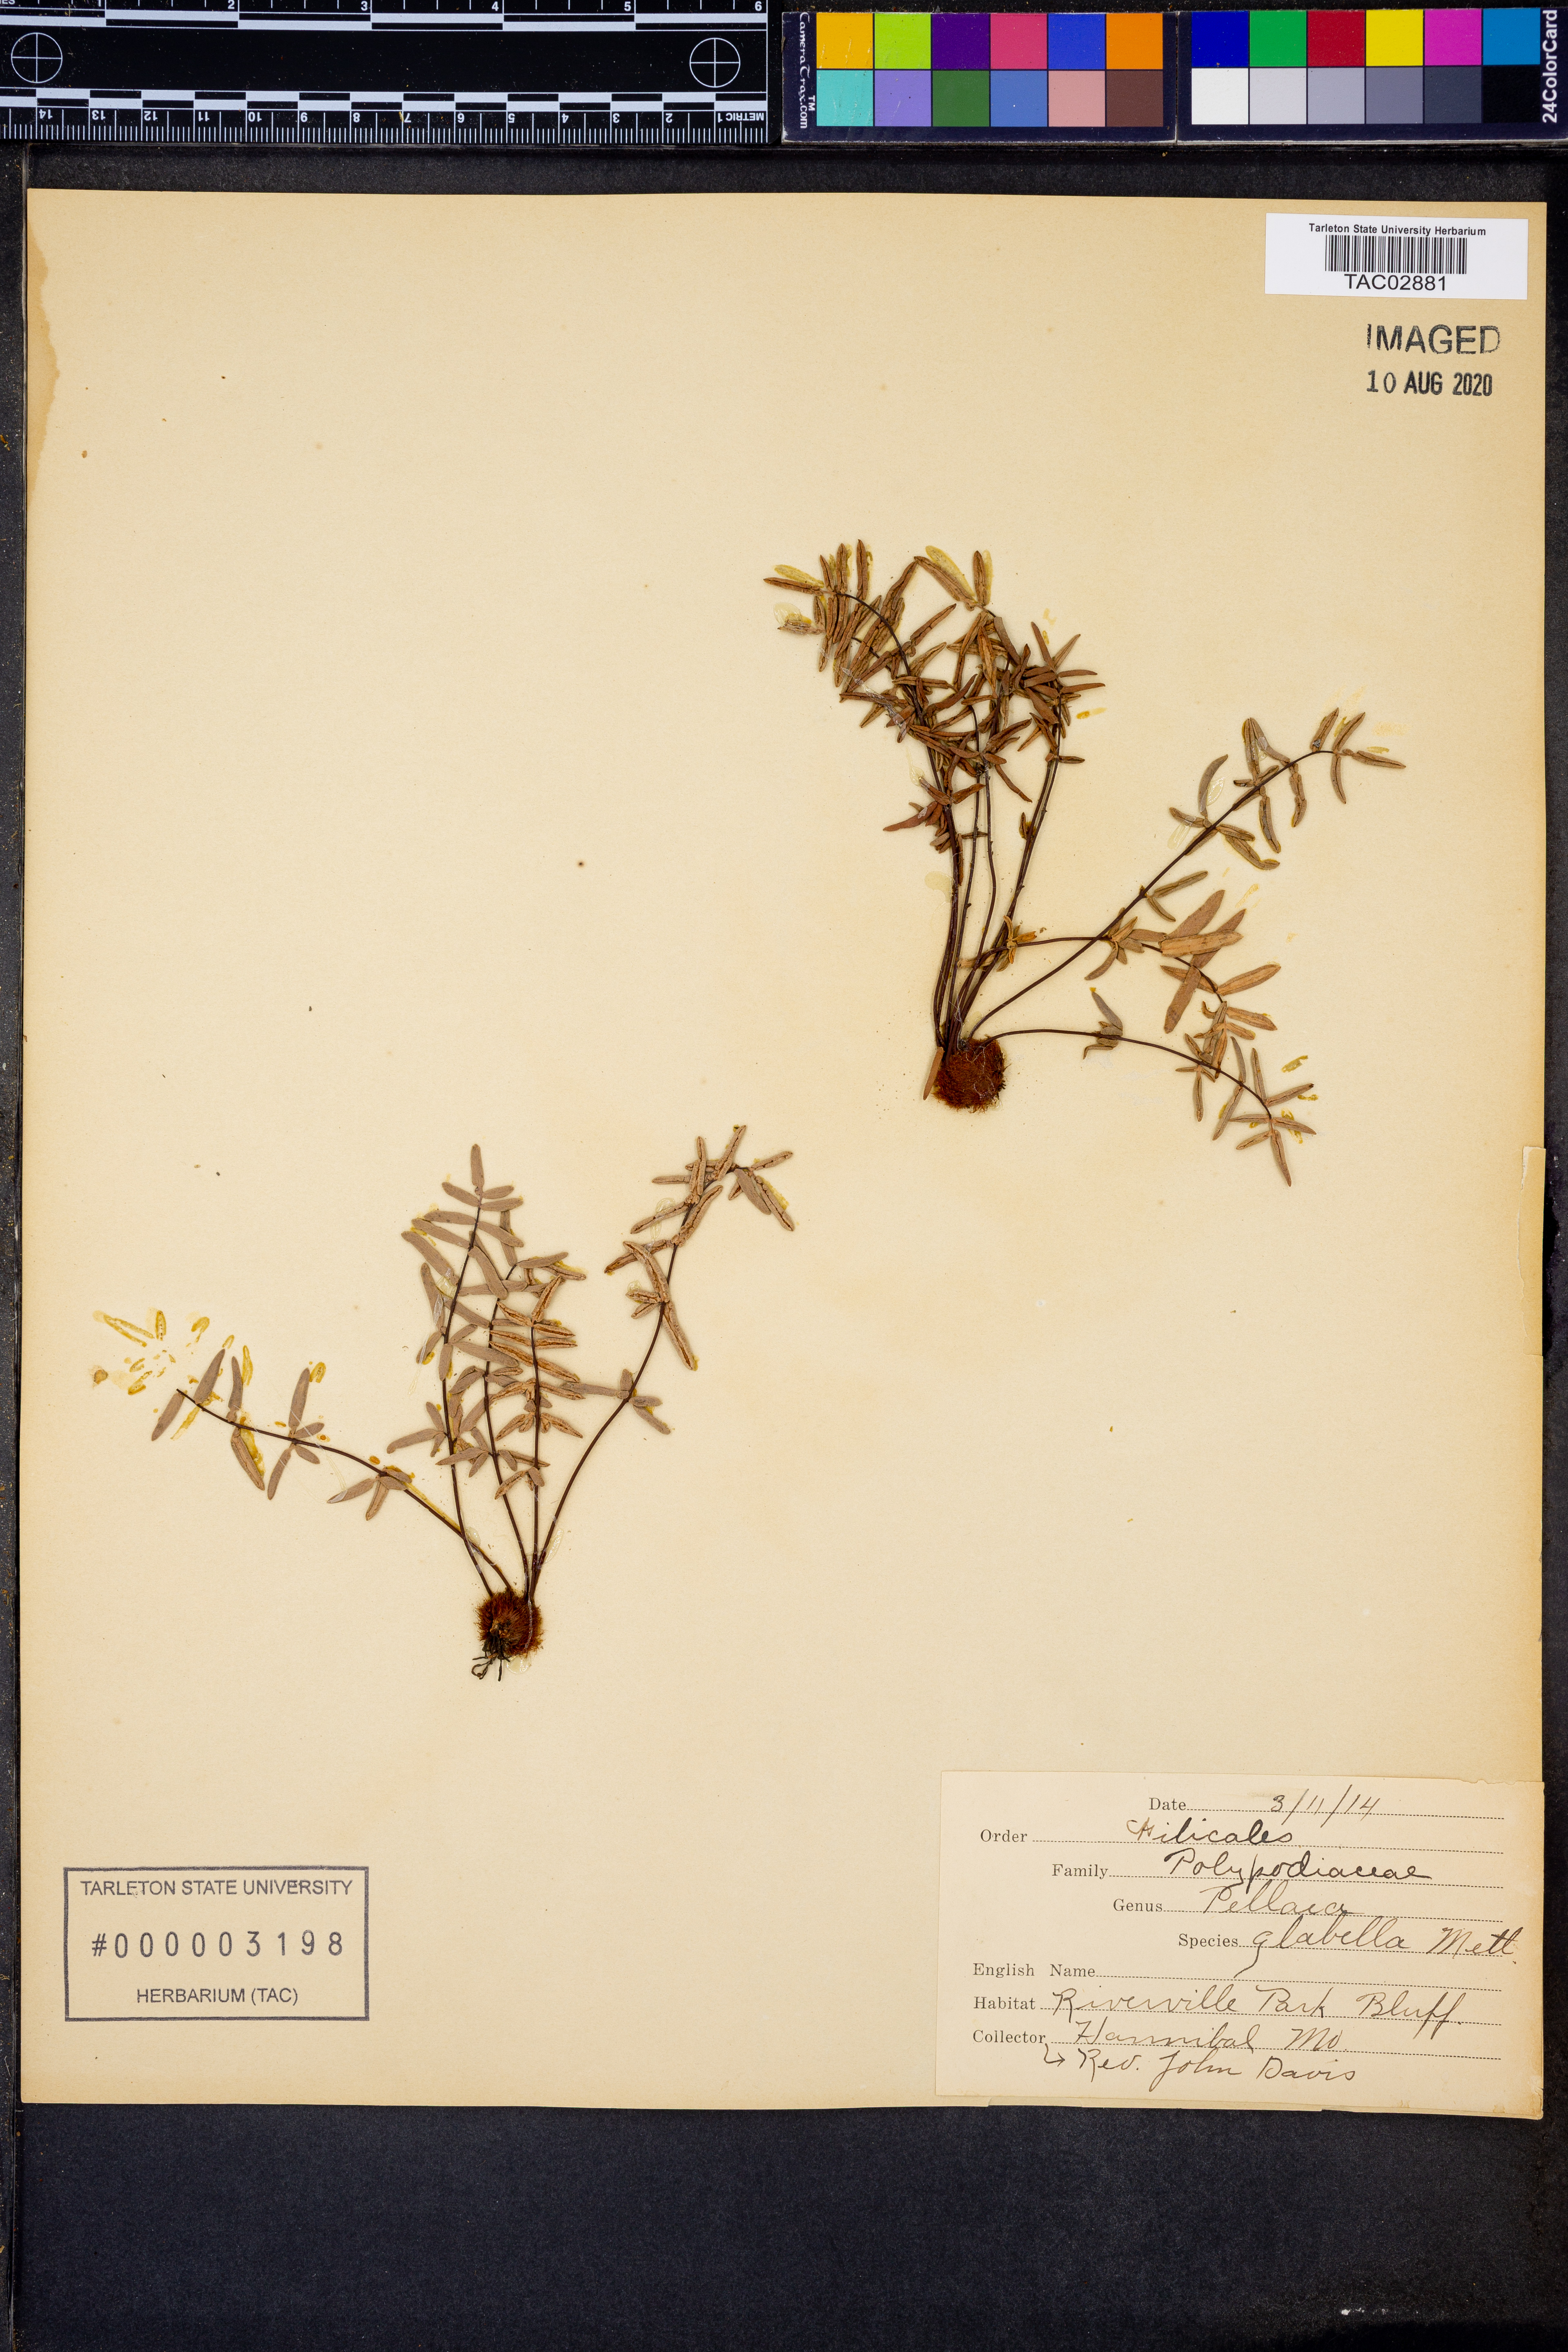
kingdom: Plantae
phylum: Tracheophyta
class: Polypodiopsida
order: Polypodiales
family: Pteridaceae
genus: Pellaea
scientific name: Pellaea glabella
